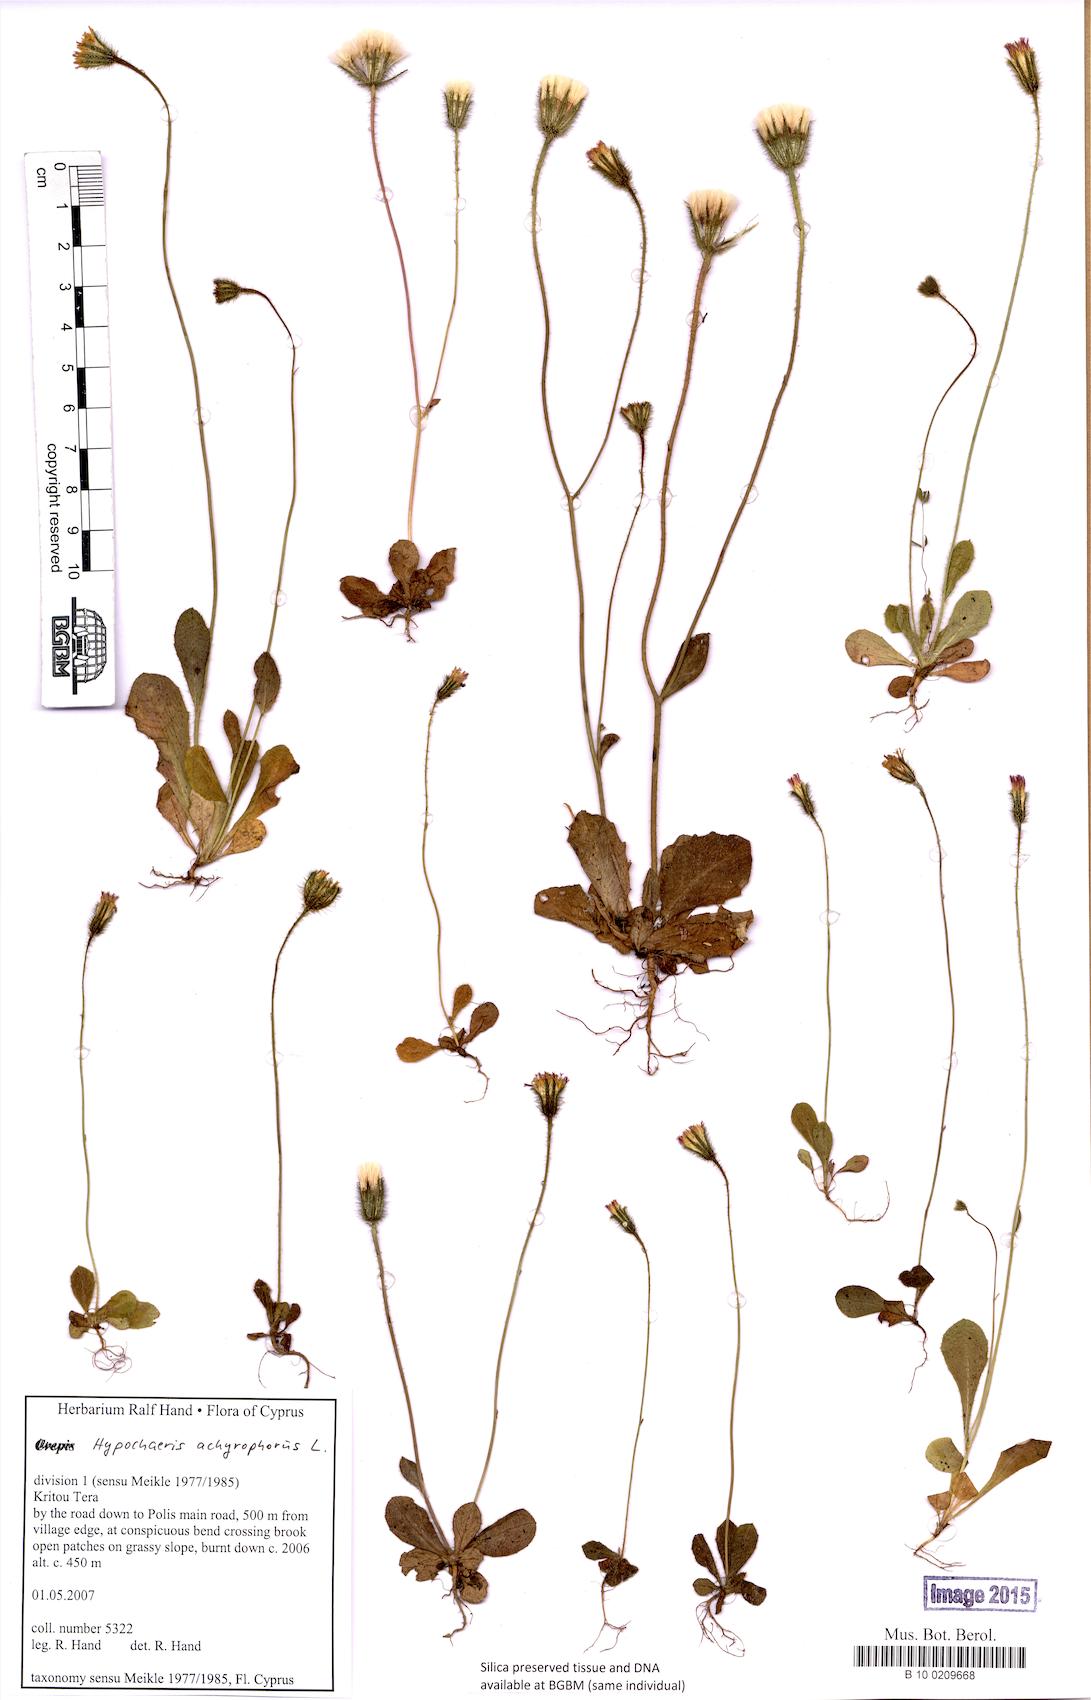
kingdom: Plantae
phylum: Tracheophyta
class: Magnoliopsida
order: Asterales
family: Asteraceae
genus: Achyrophorus
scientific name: Achyrophorus valdesii
